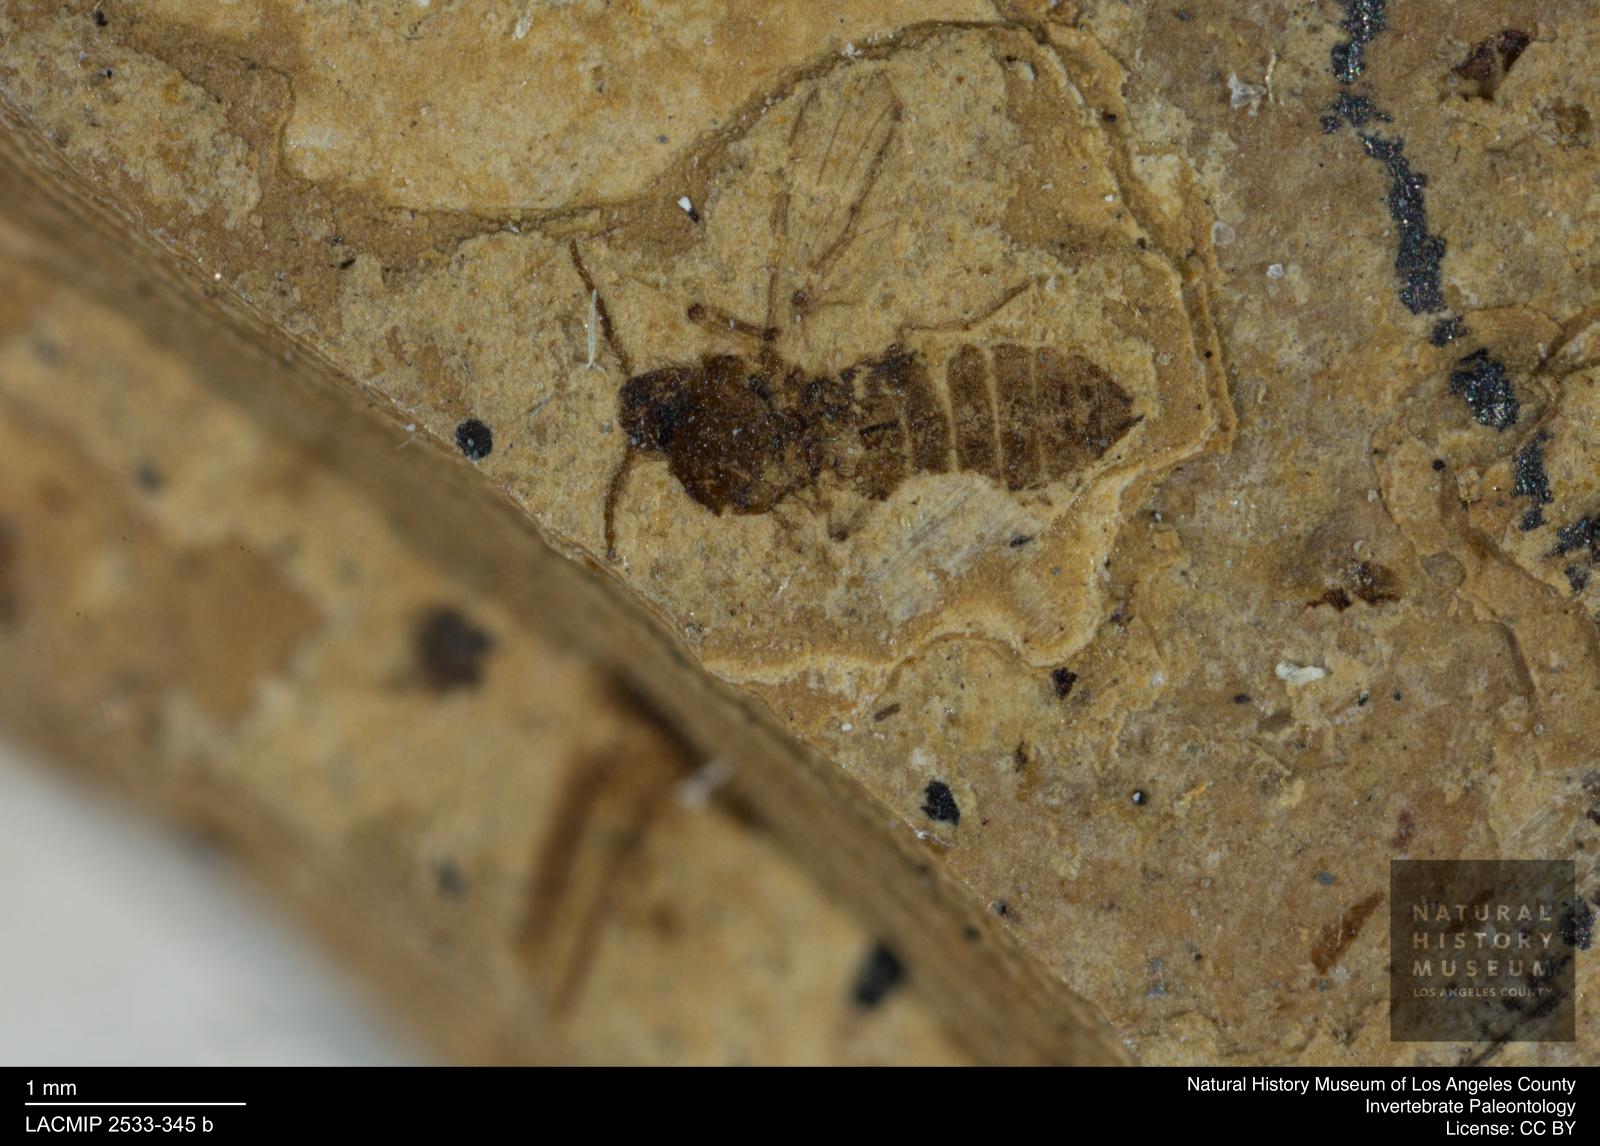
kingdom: Animalia
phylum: Arthropoda
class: Insecta
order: Diptera
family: Ceratopogonidae
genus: Culicoides
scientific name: Culicoides austerus
